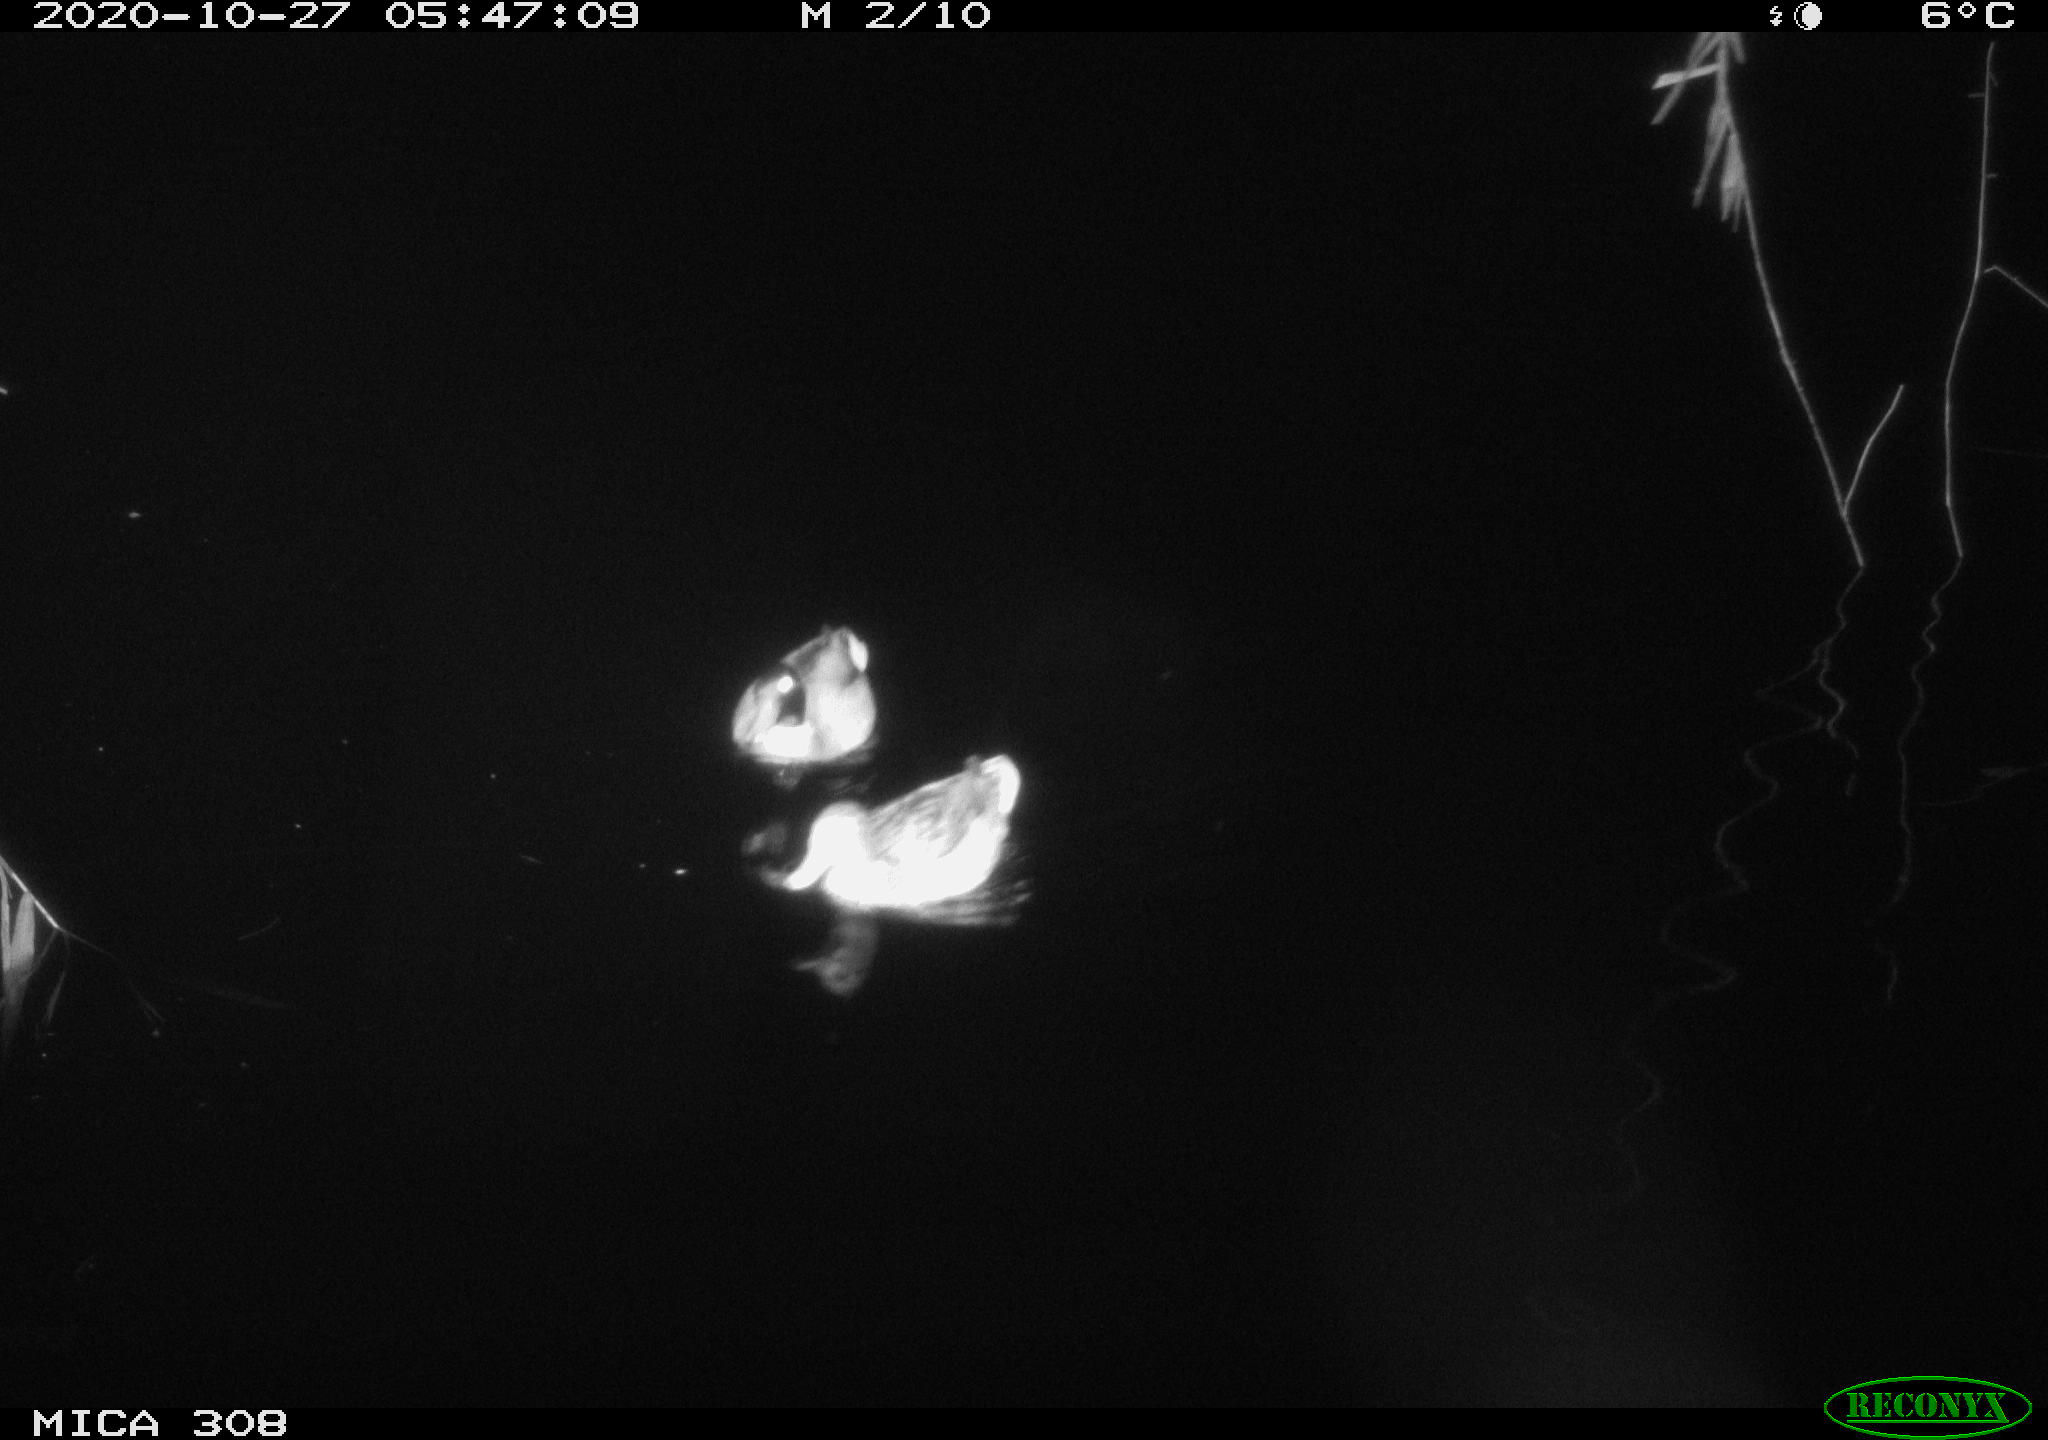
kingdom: Animalia
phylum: Chordata
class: Aves
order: Anseriformes
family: Anatidae
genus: Anas
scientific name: Anas platyrhynchos
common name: Mallard
